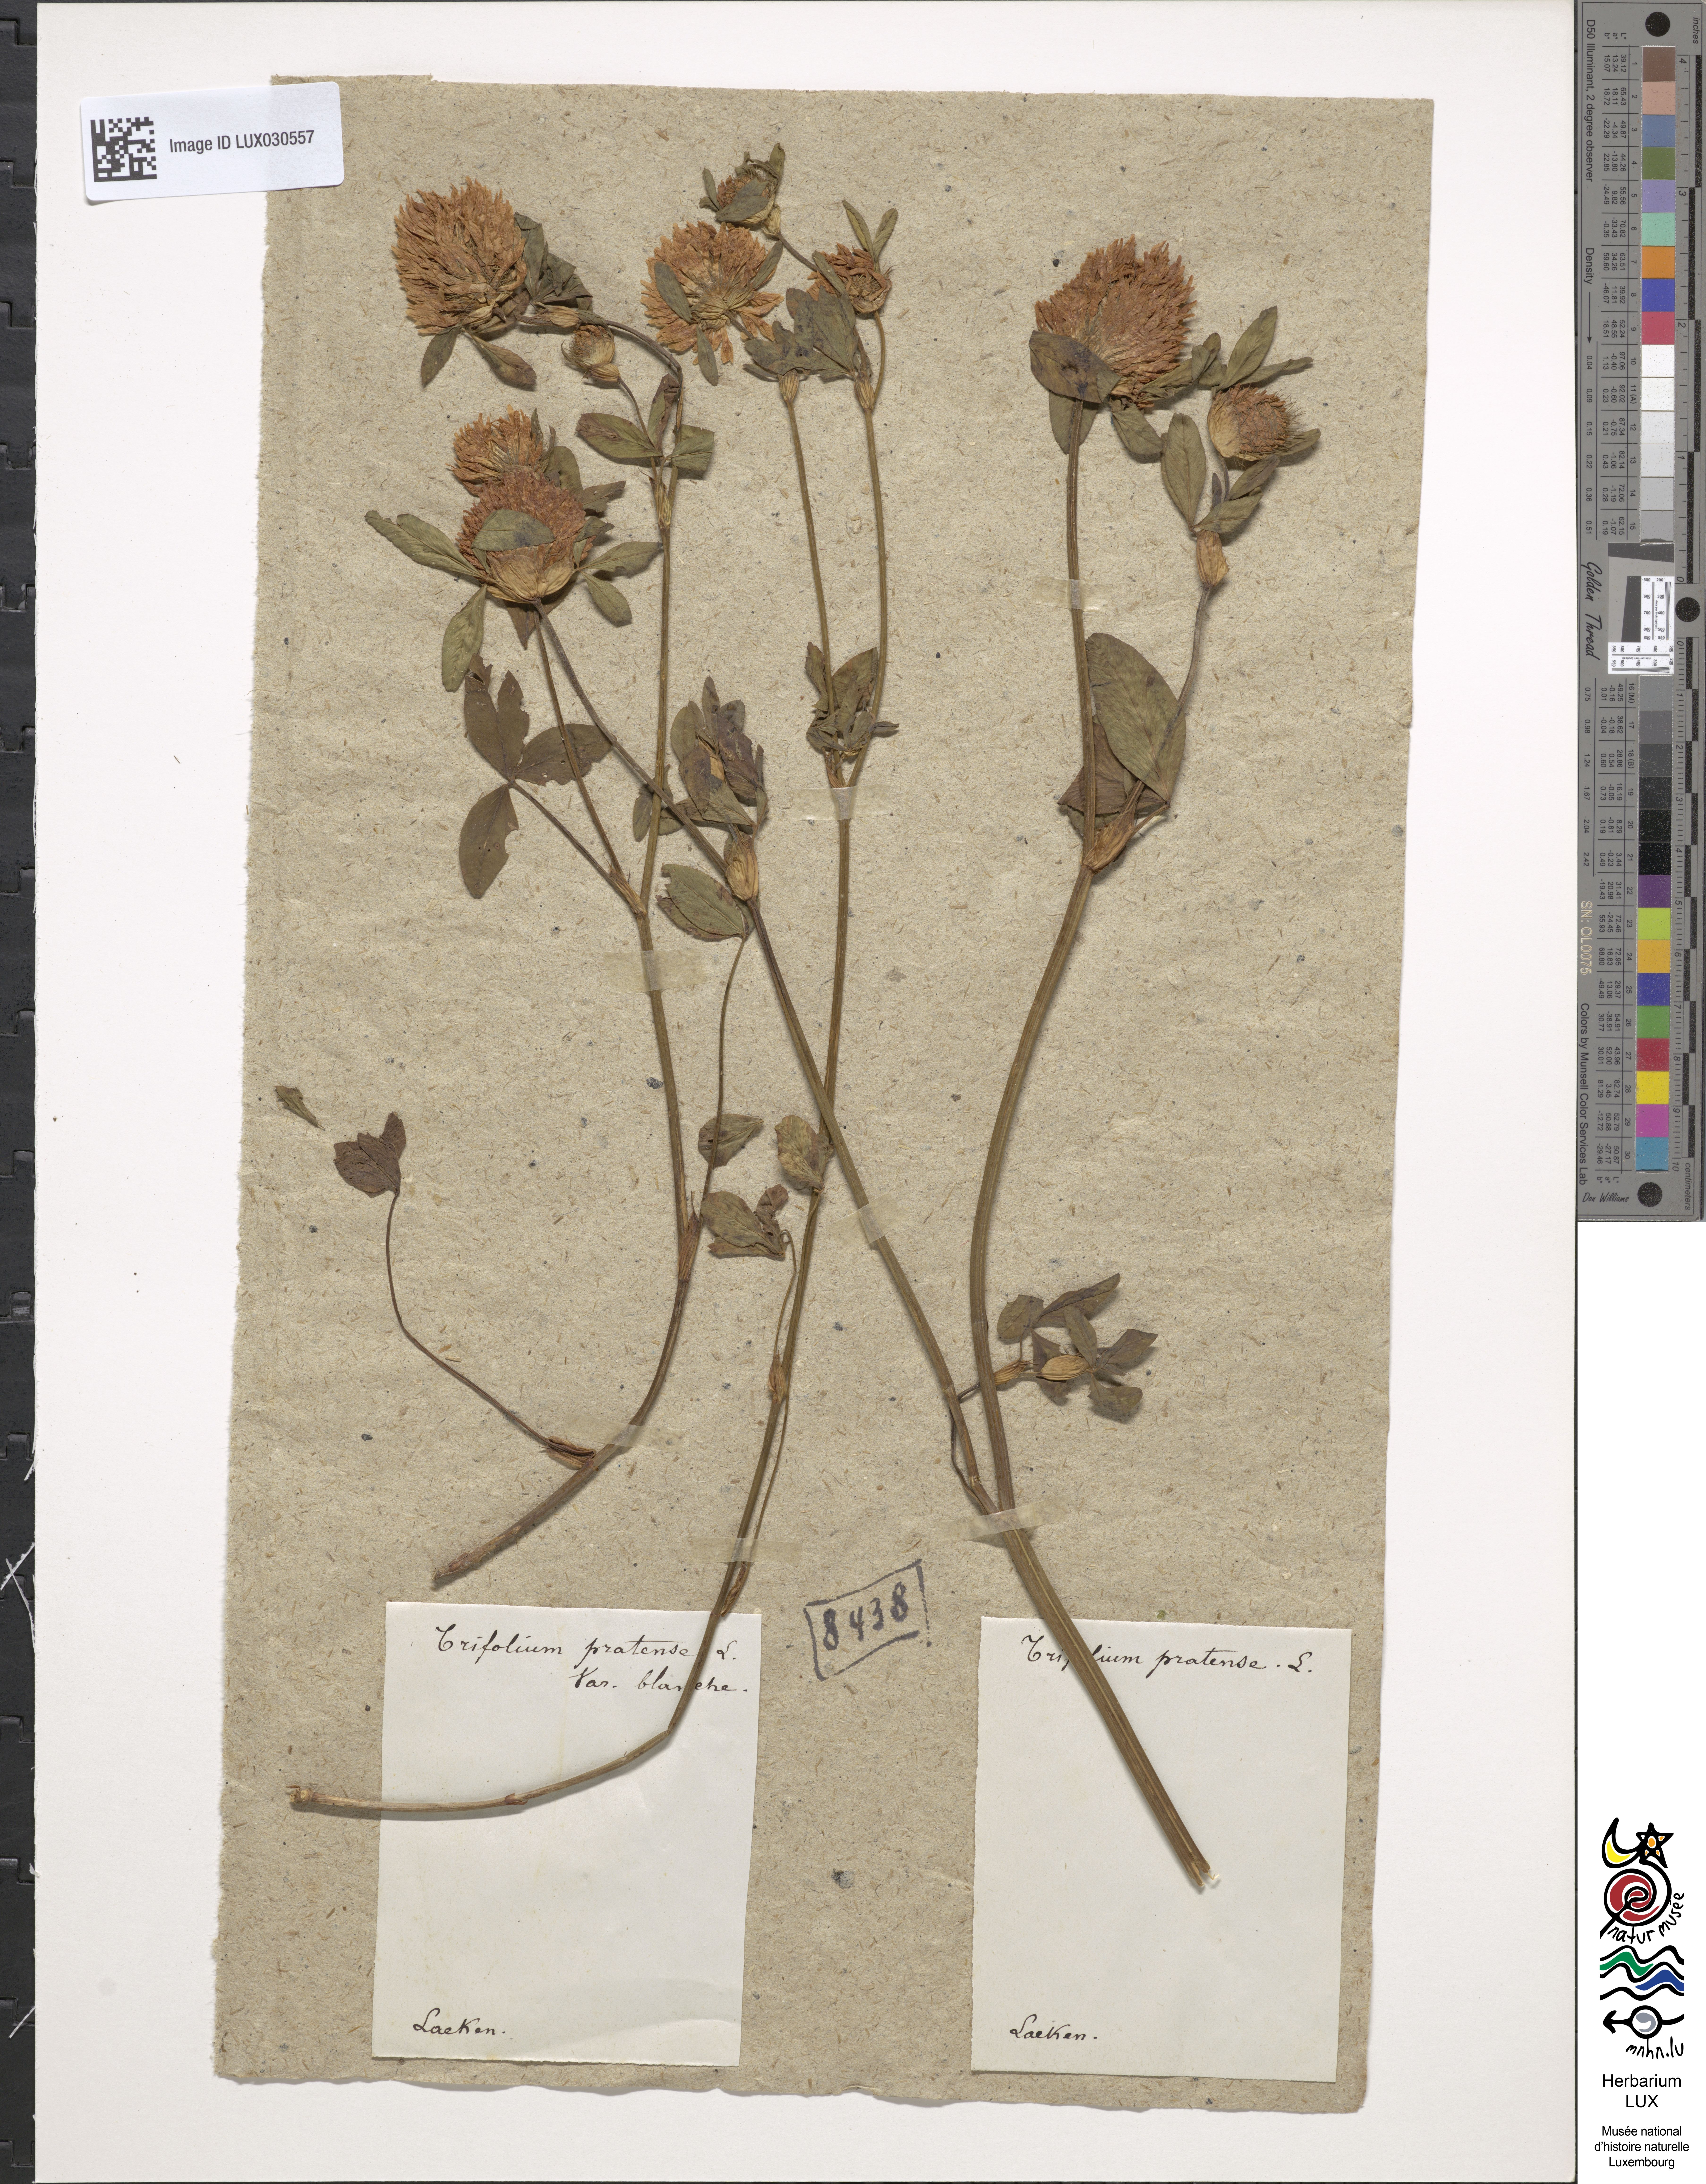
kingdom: Plantae
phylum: Tracheophyta
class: Magnoliopsida
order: Fabales
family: Fabaceae
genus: Trifolium
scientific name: Trifolium pratense
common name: Red clover
